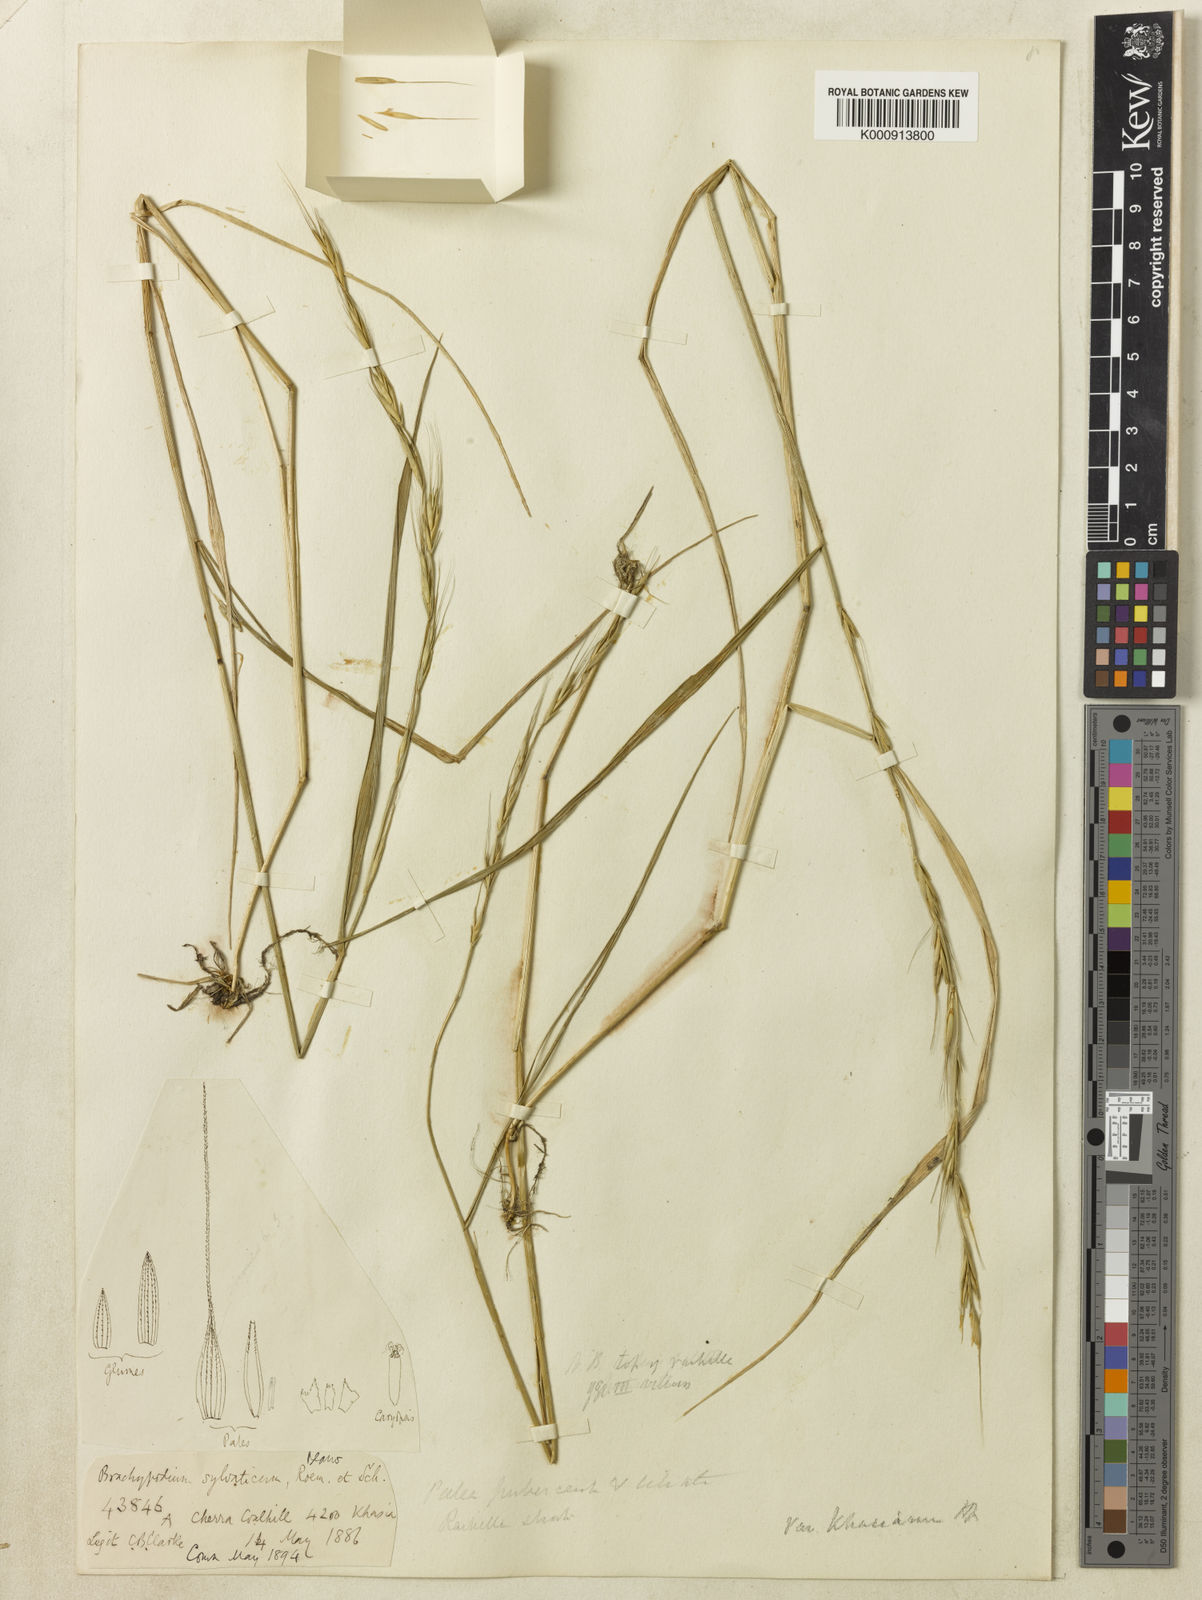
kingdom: Plantae
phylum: Tracheophyta
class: Liliopsida
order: Poales
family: Poaceae
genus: Brachypodium
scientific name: Brachypodium
